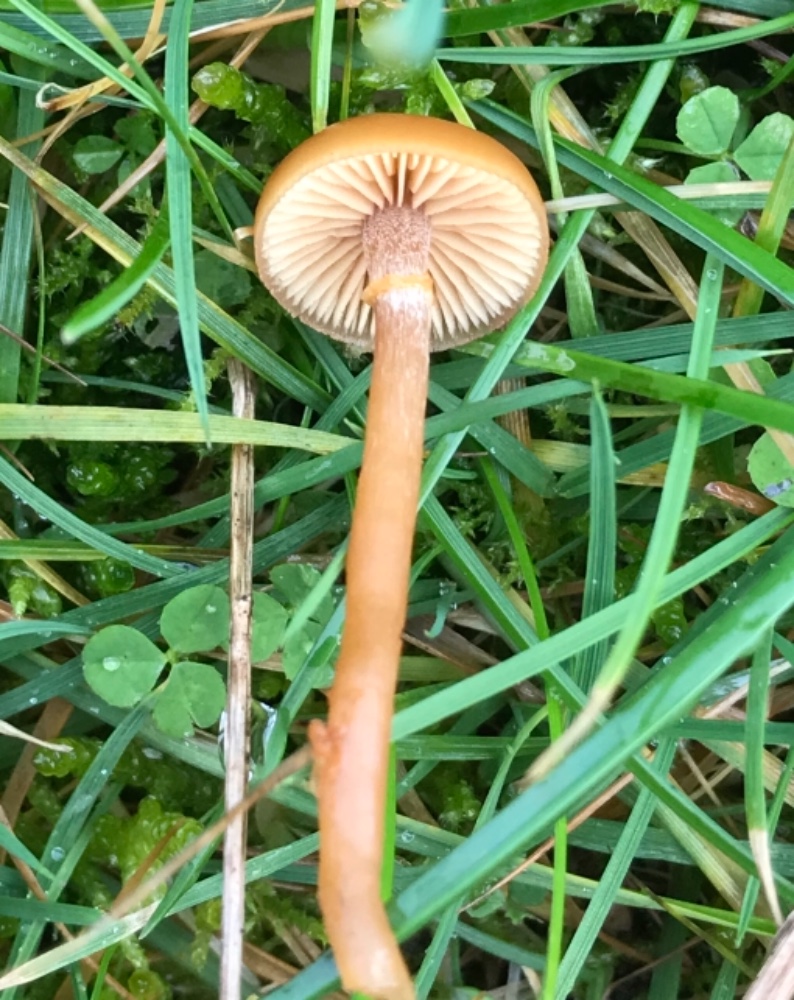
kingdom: Fungi
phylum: Basidiomycota
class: Agaricomycetes
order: Agaricales
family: Hymenogastraceae
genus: Galerina
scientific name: Galerina marginata
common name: randbæltet hjelmhat
